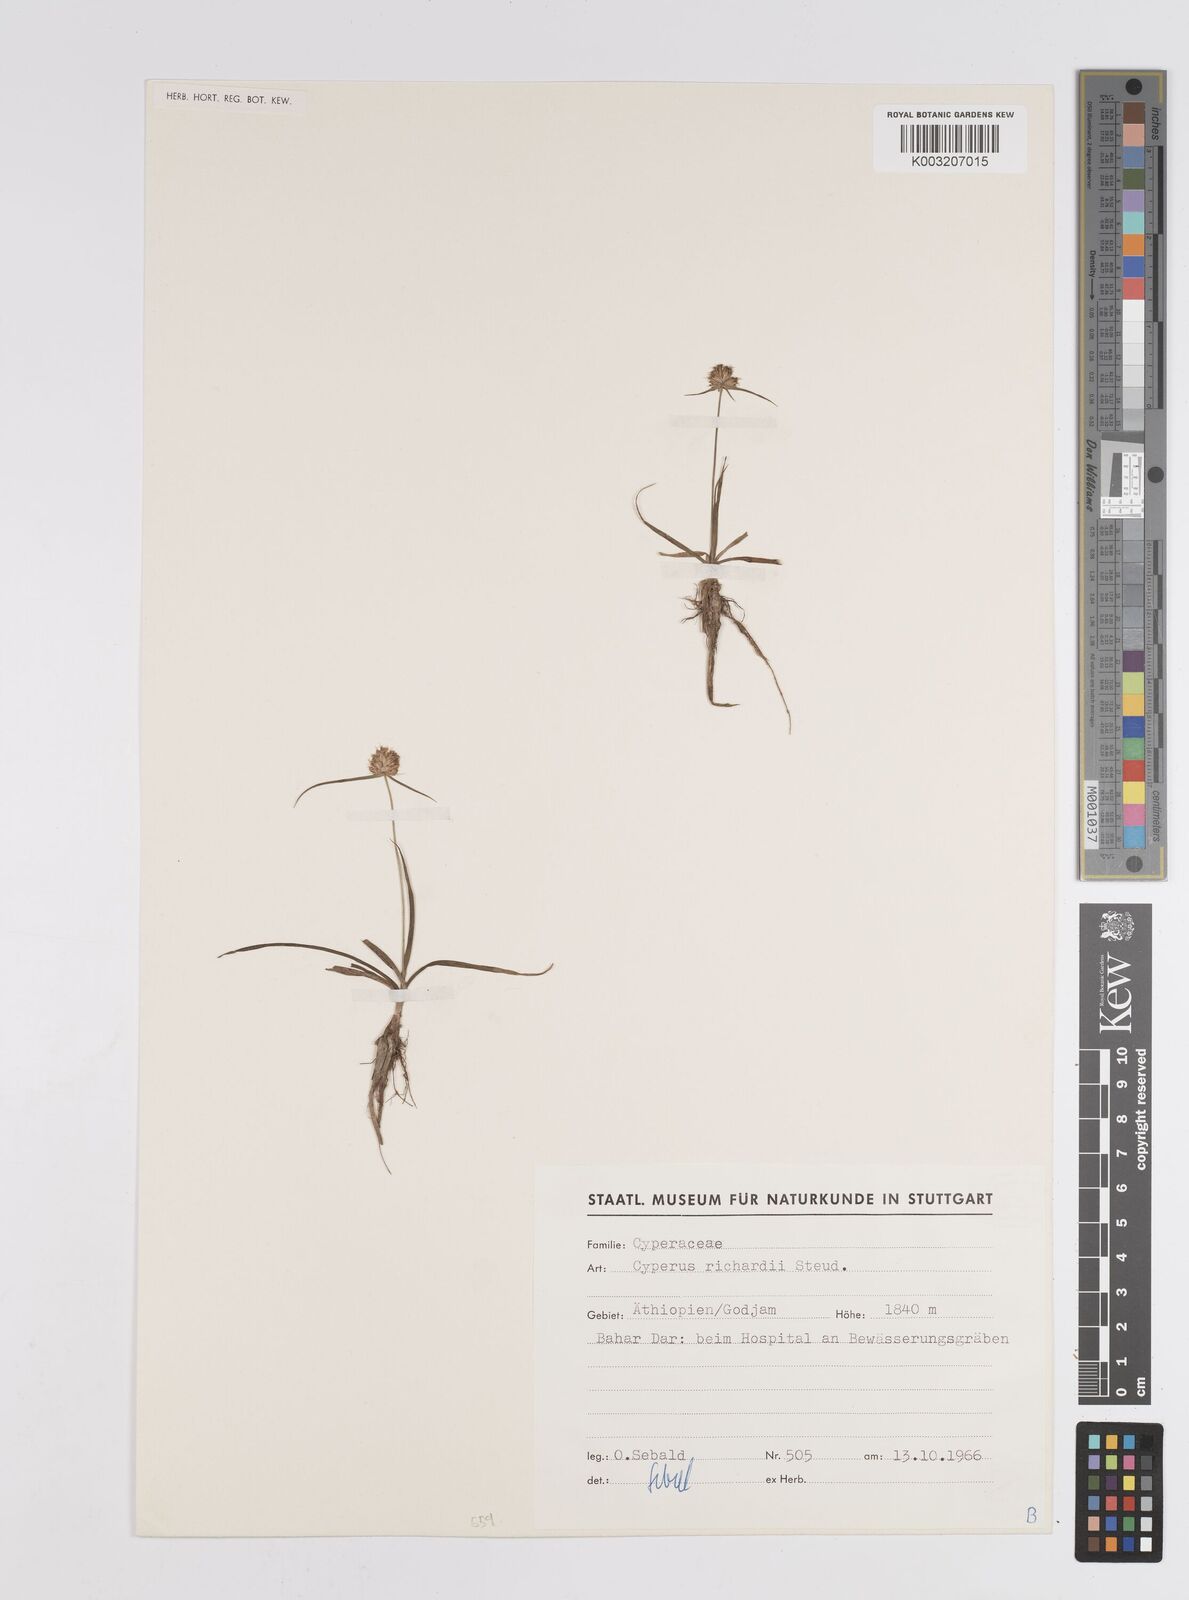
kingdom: Plantae
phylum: Tracheophyta
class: Liliopsida
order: Poales
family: Cyperaceae
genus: Cyperus
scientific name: Cyperus
